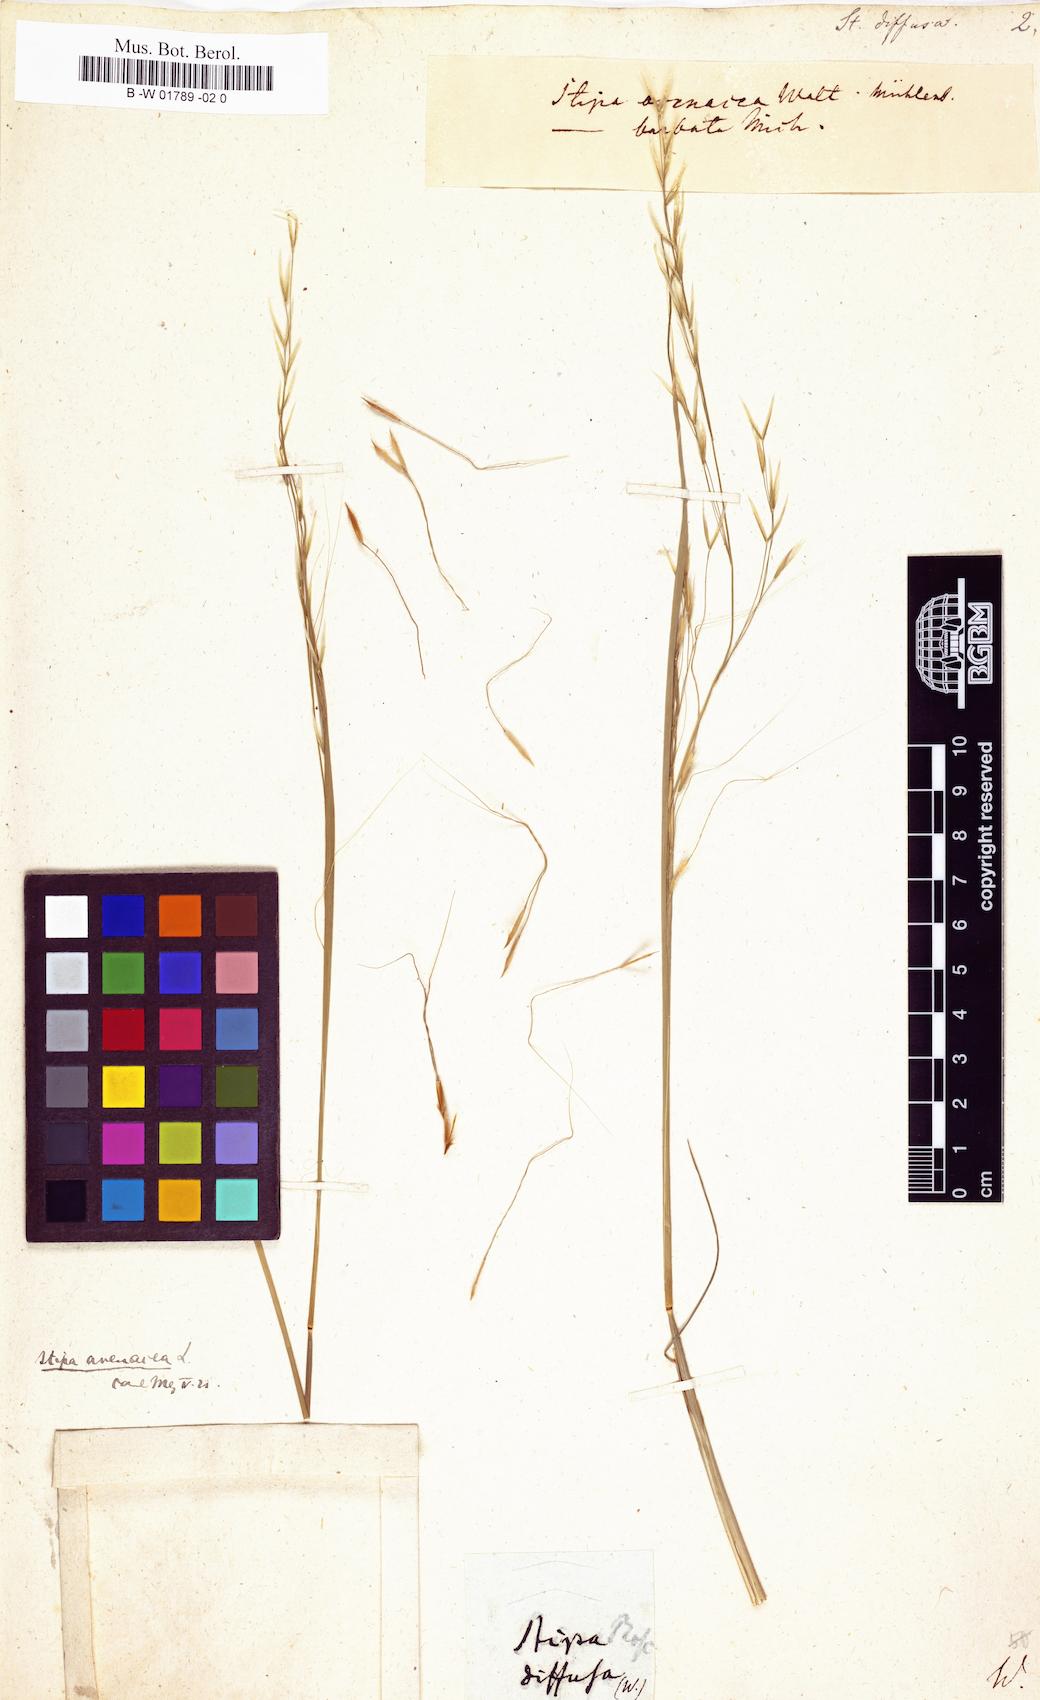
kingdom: Plantae
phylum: Tracheophyta
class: Liliopsida
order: Poales
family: Poaceae
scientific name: Poaceae
